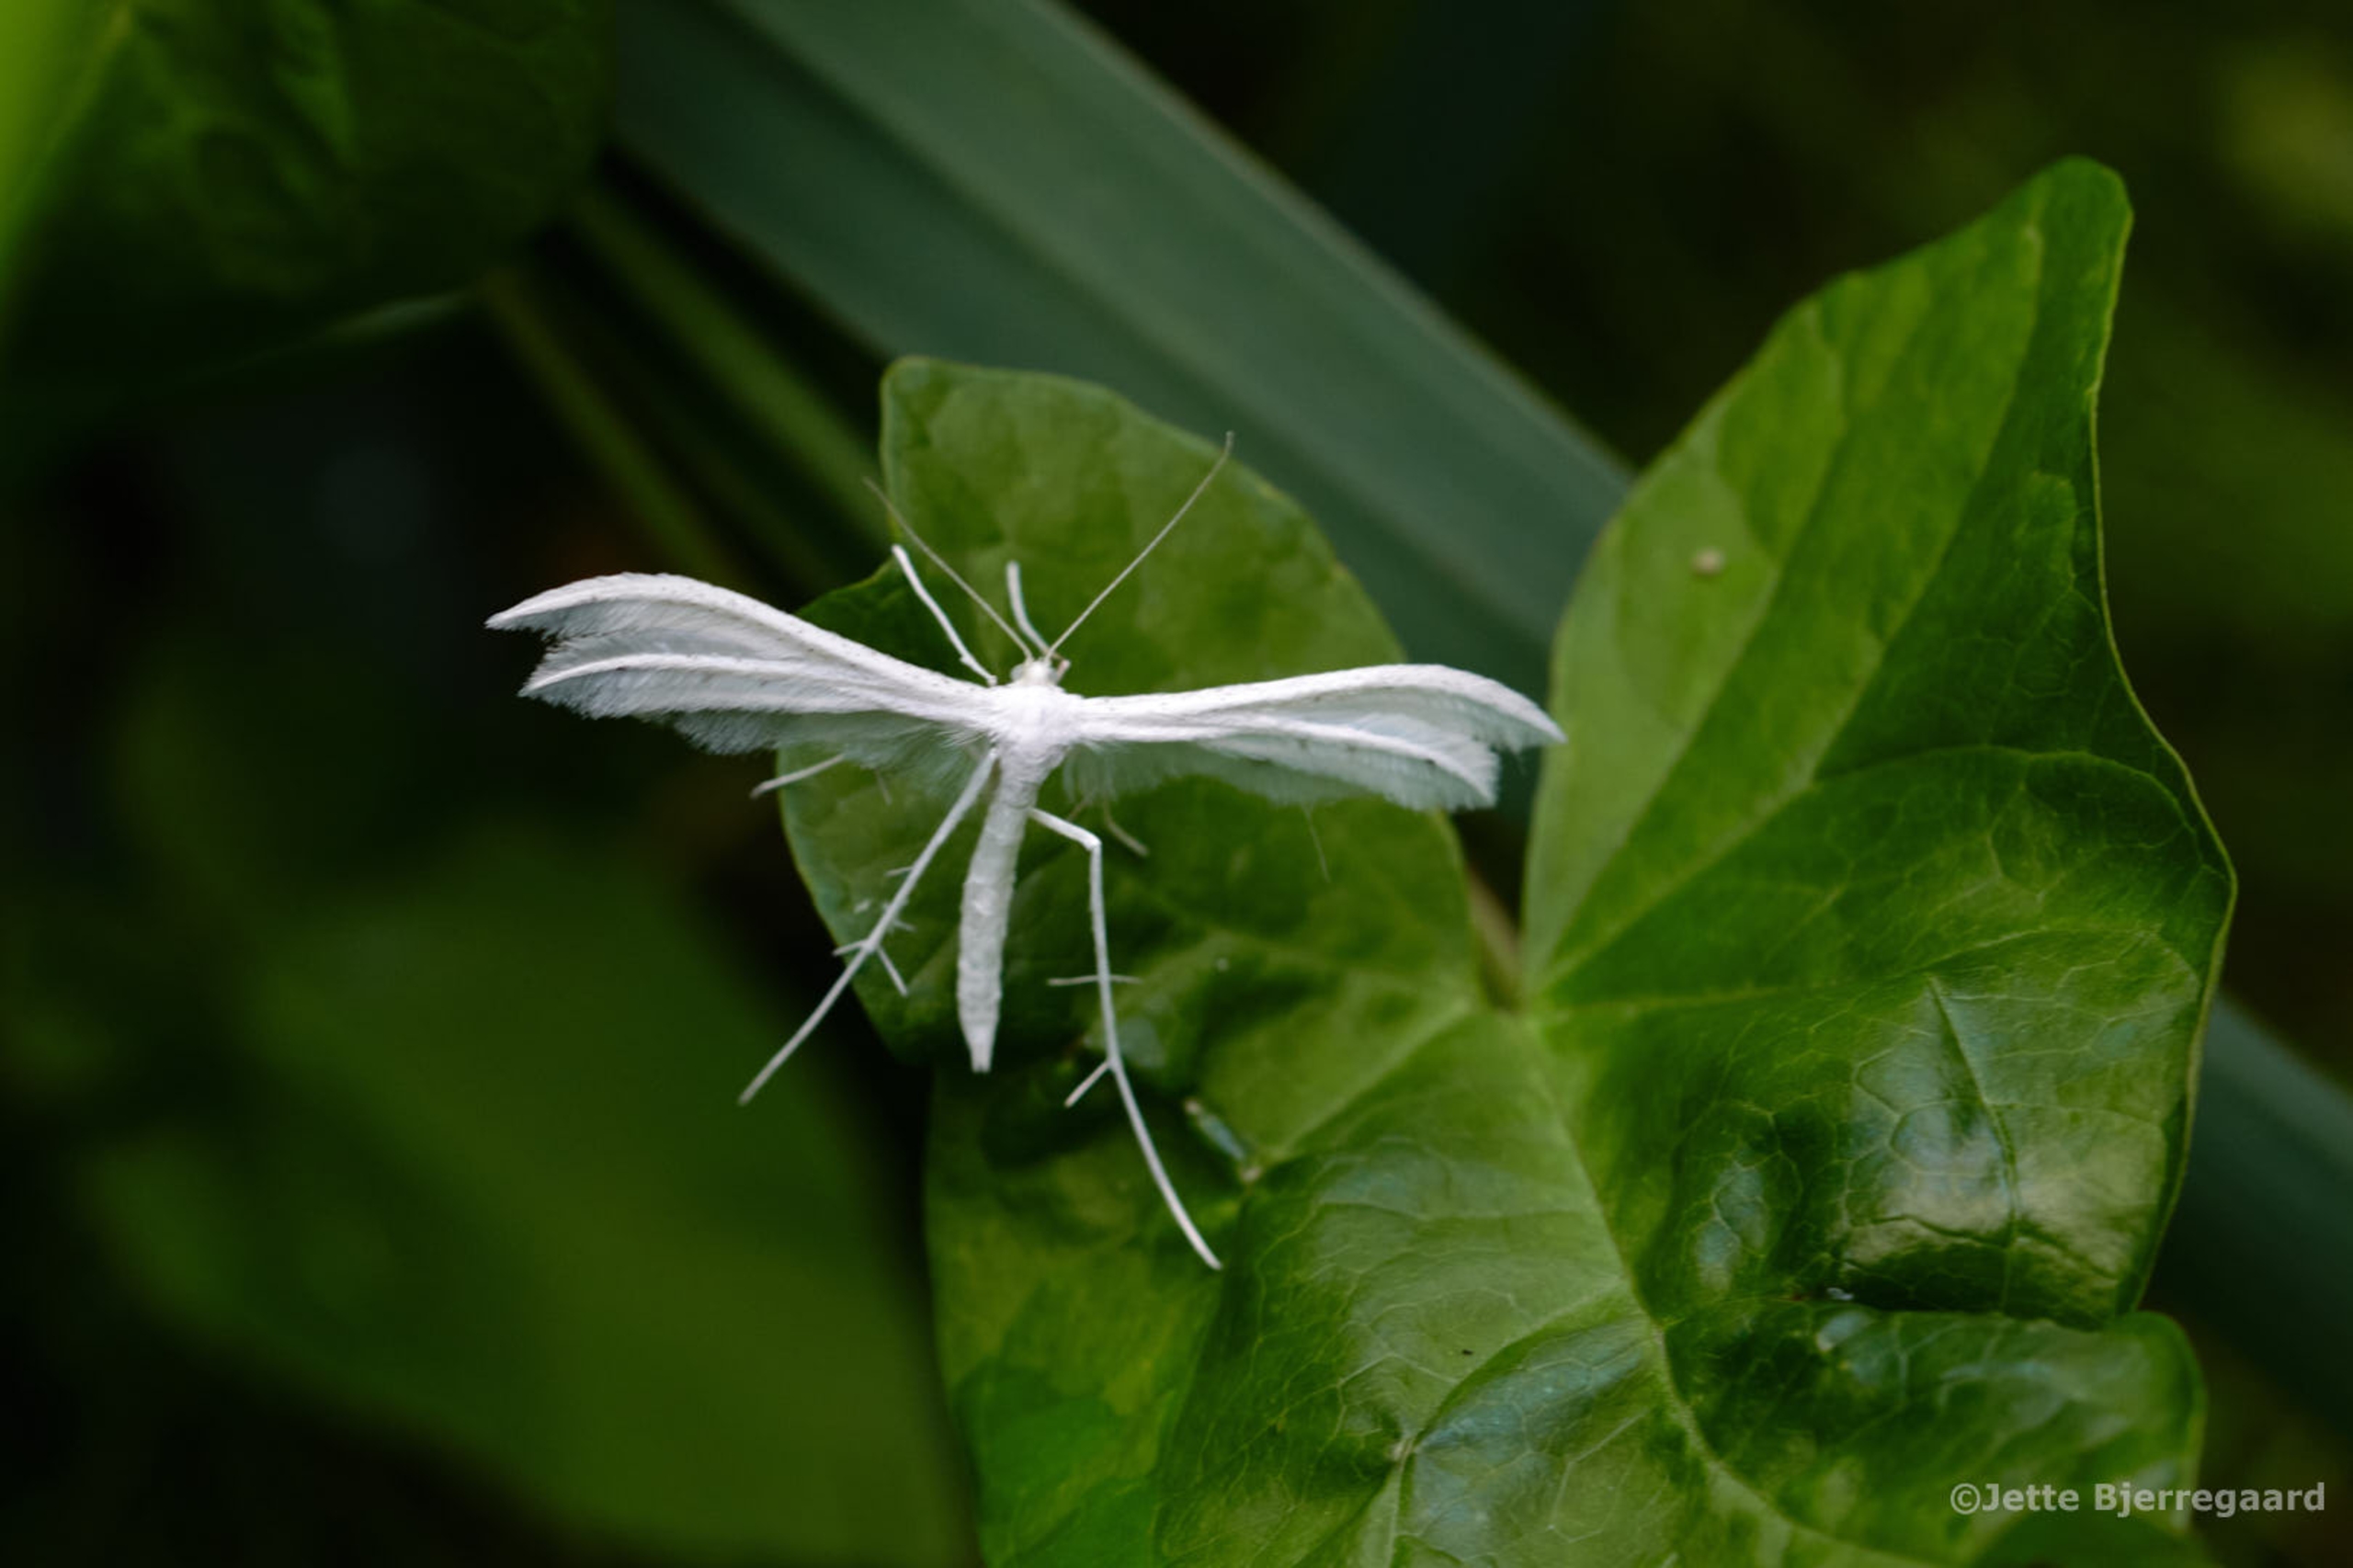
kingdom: Animalia
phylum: Arthropoda
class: Insecta
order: Lepidoptera
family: Pterophoridae
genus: Pterophorus
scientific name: Pterophorus pentadactyla
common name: Hvidt fjermøl
